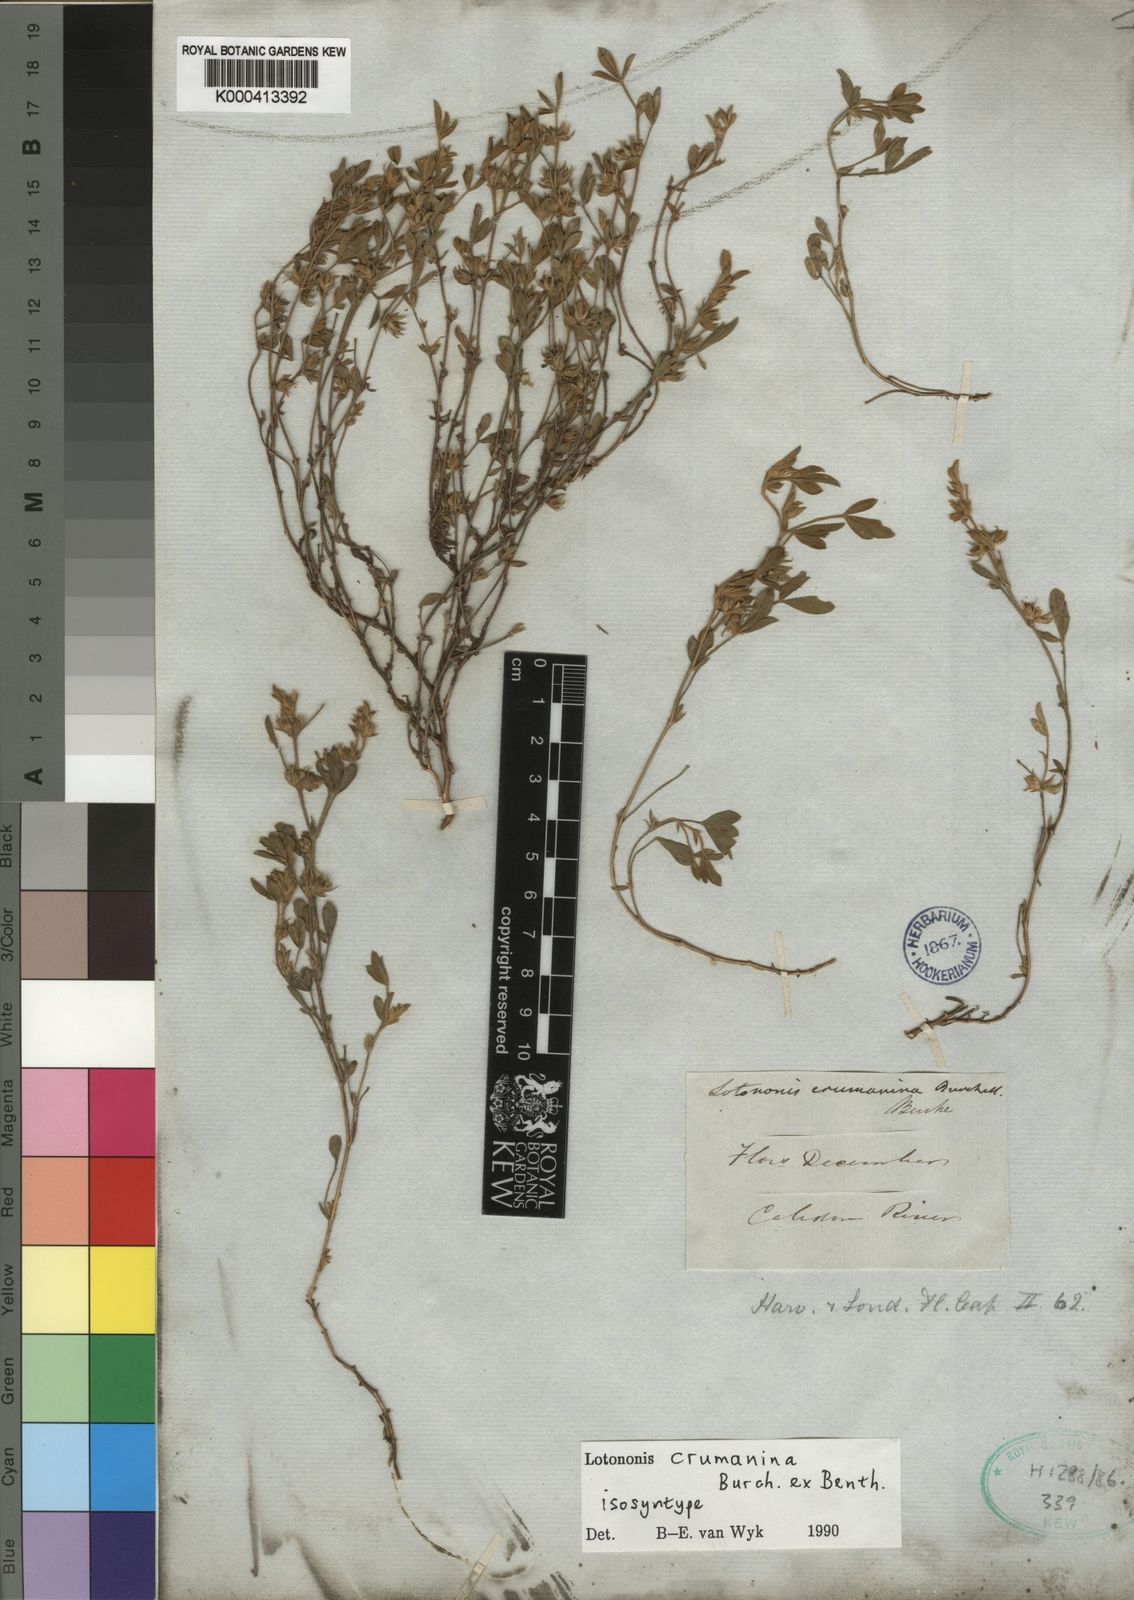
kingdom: Plantae
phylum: Tracheophyta
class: Magnoliopsida
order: Fabales
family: Fabaceae
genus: Lotononis
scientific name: Lotononis
